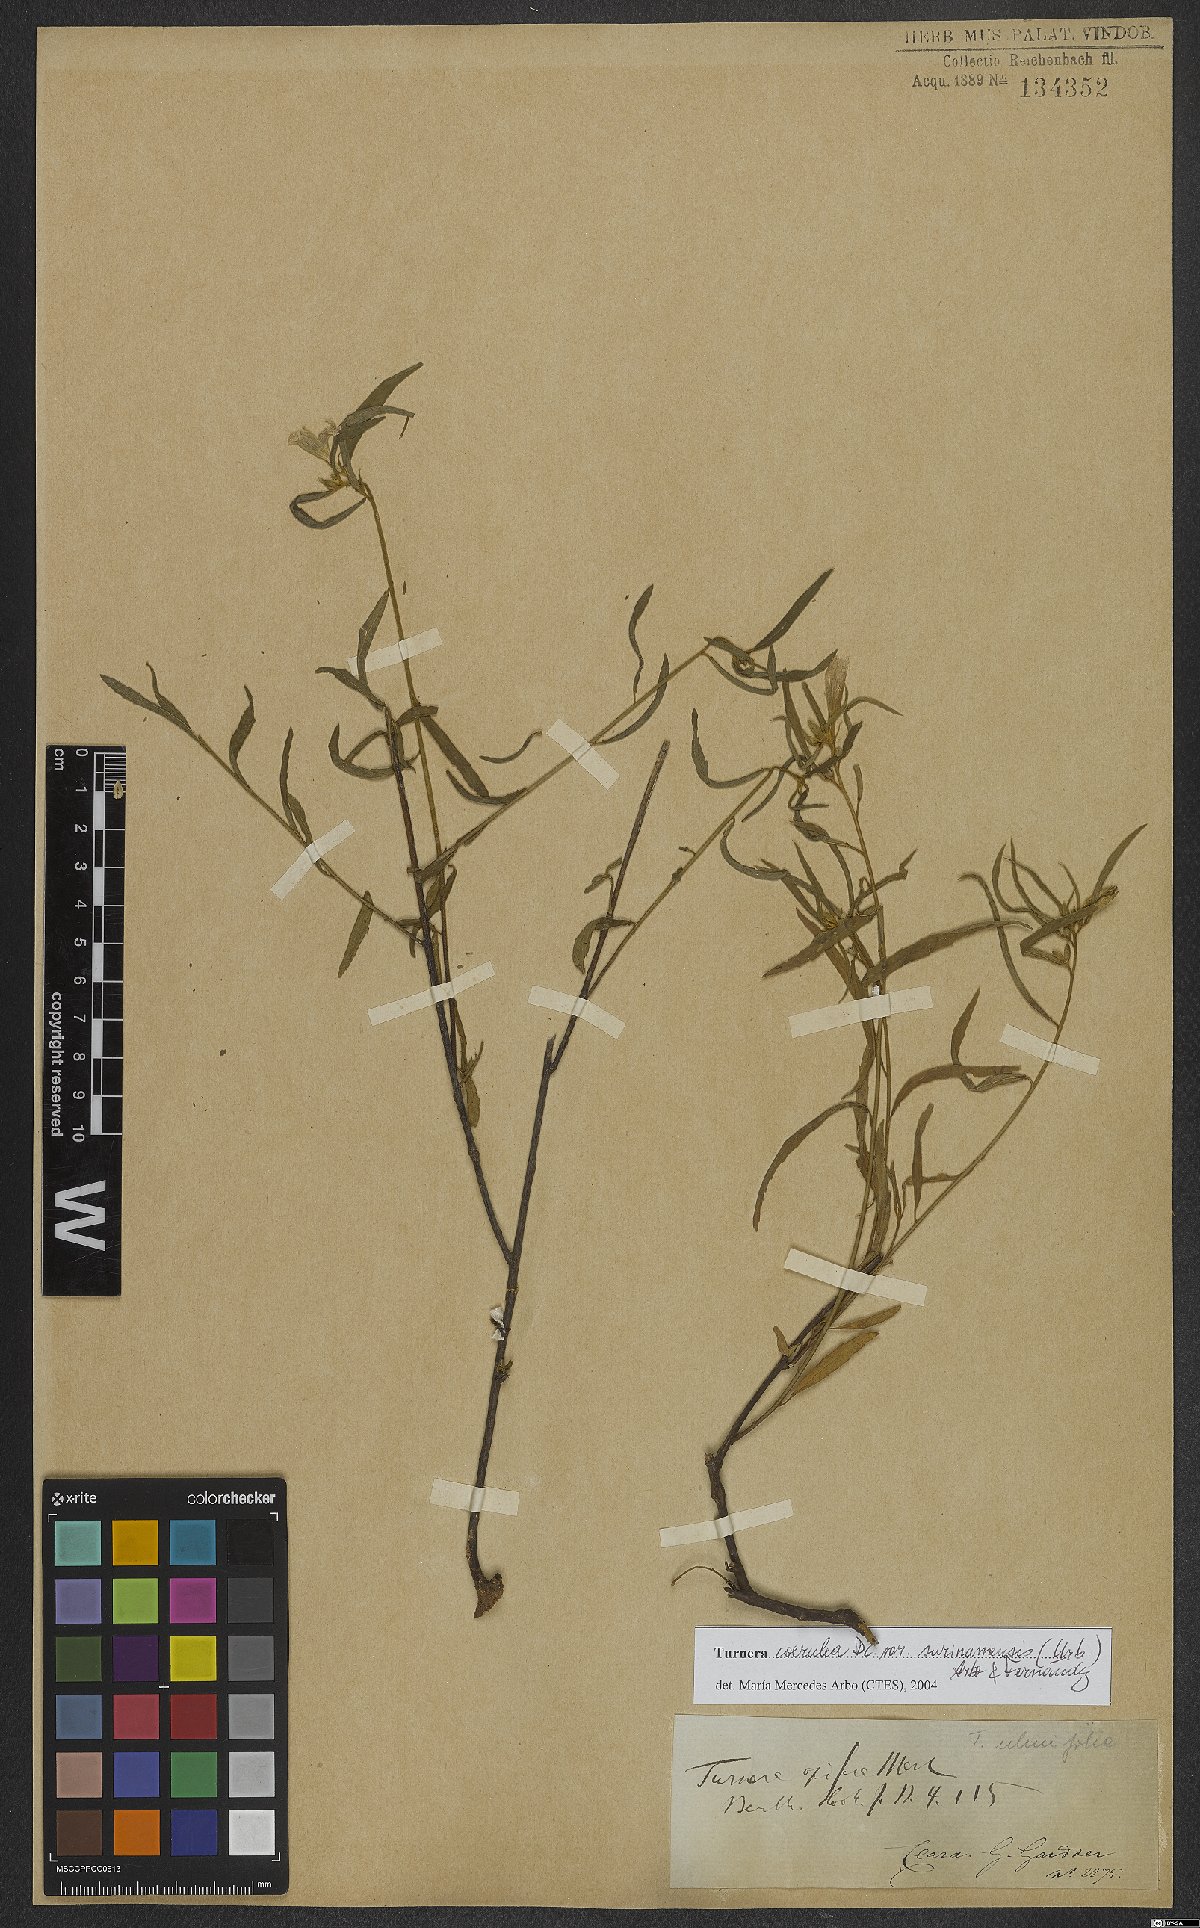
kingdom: Plantae
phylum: Tracheophyta
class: Magnoliopsida
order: Malpighiales
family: Turneraceae
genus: Turnera
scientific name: Turnera coerulea
